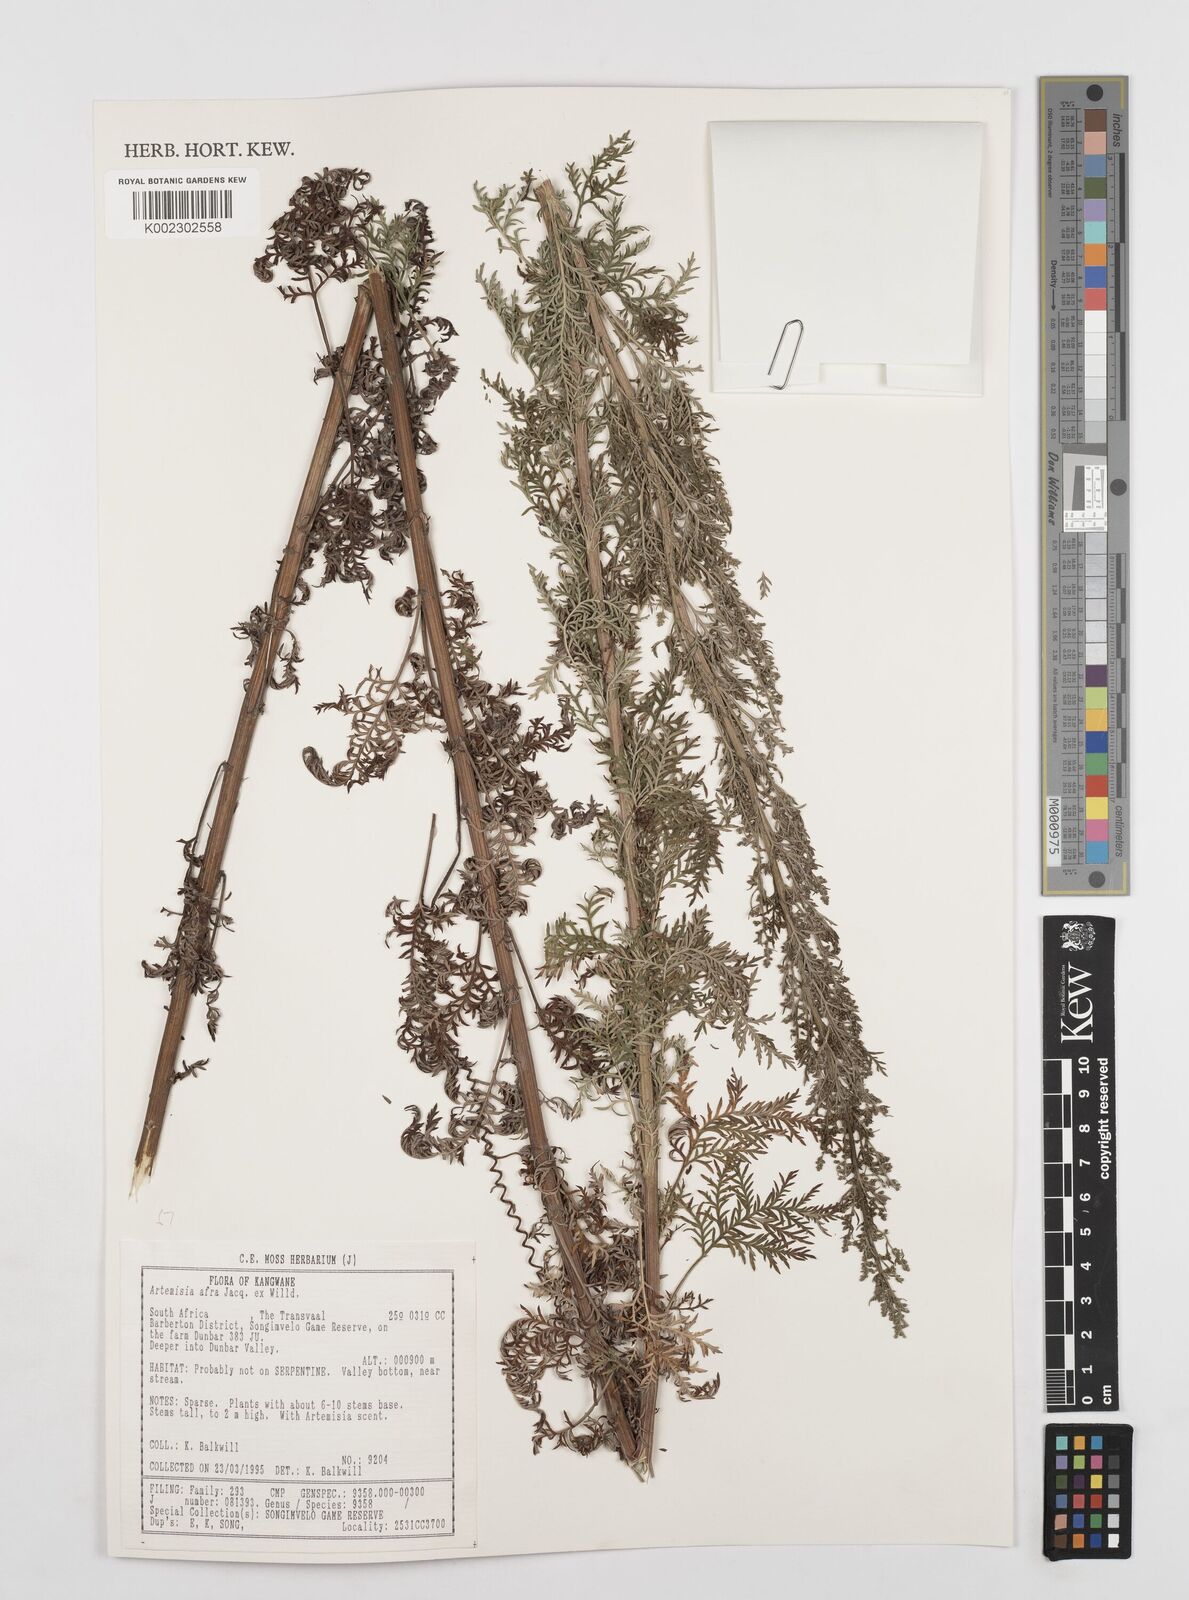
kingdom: Plantae
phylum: Tracheophyta
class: Magnoliopsida
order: Asterales
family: Asteraceae
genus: Artemisia
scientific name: Artemisia afra
